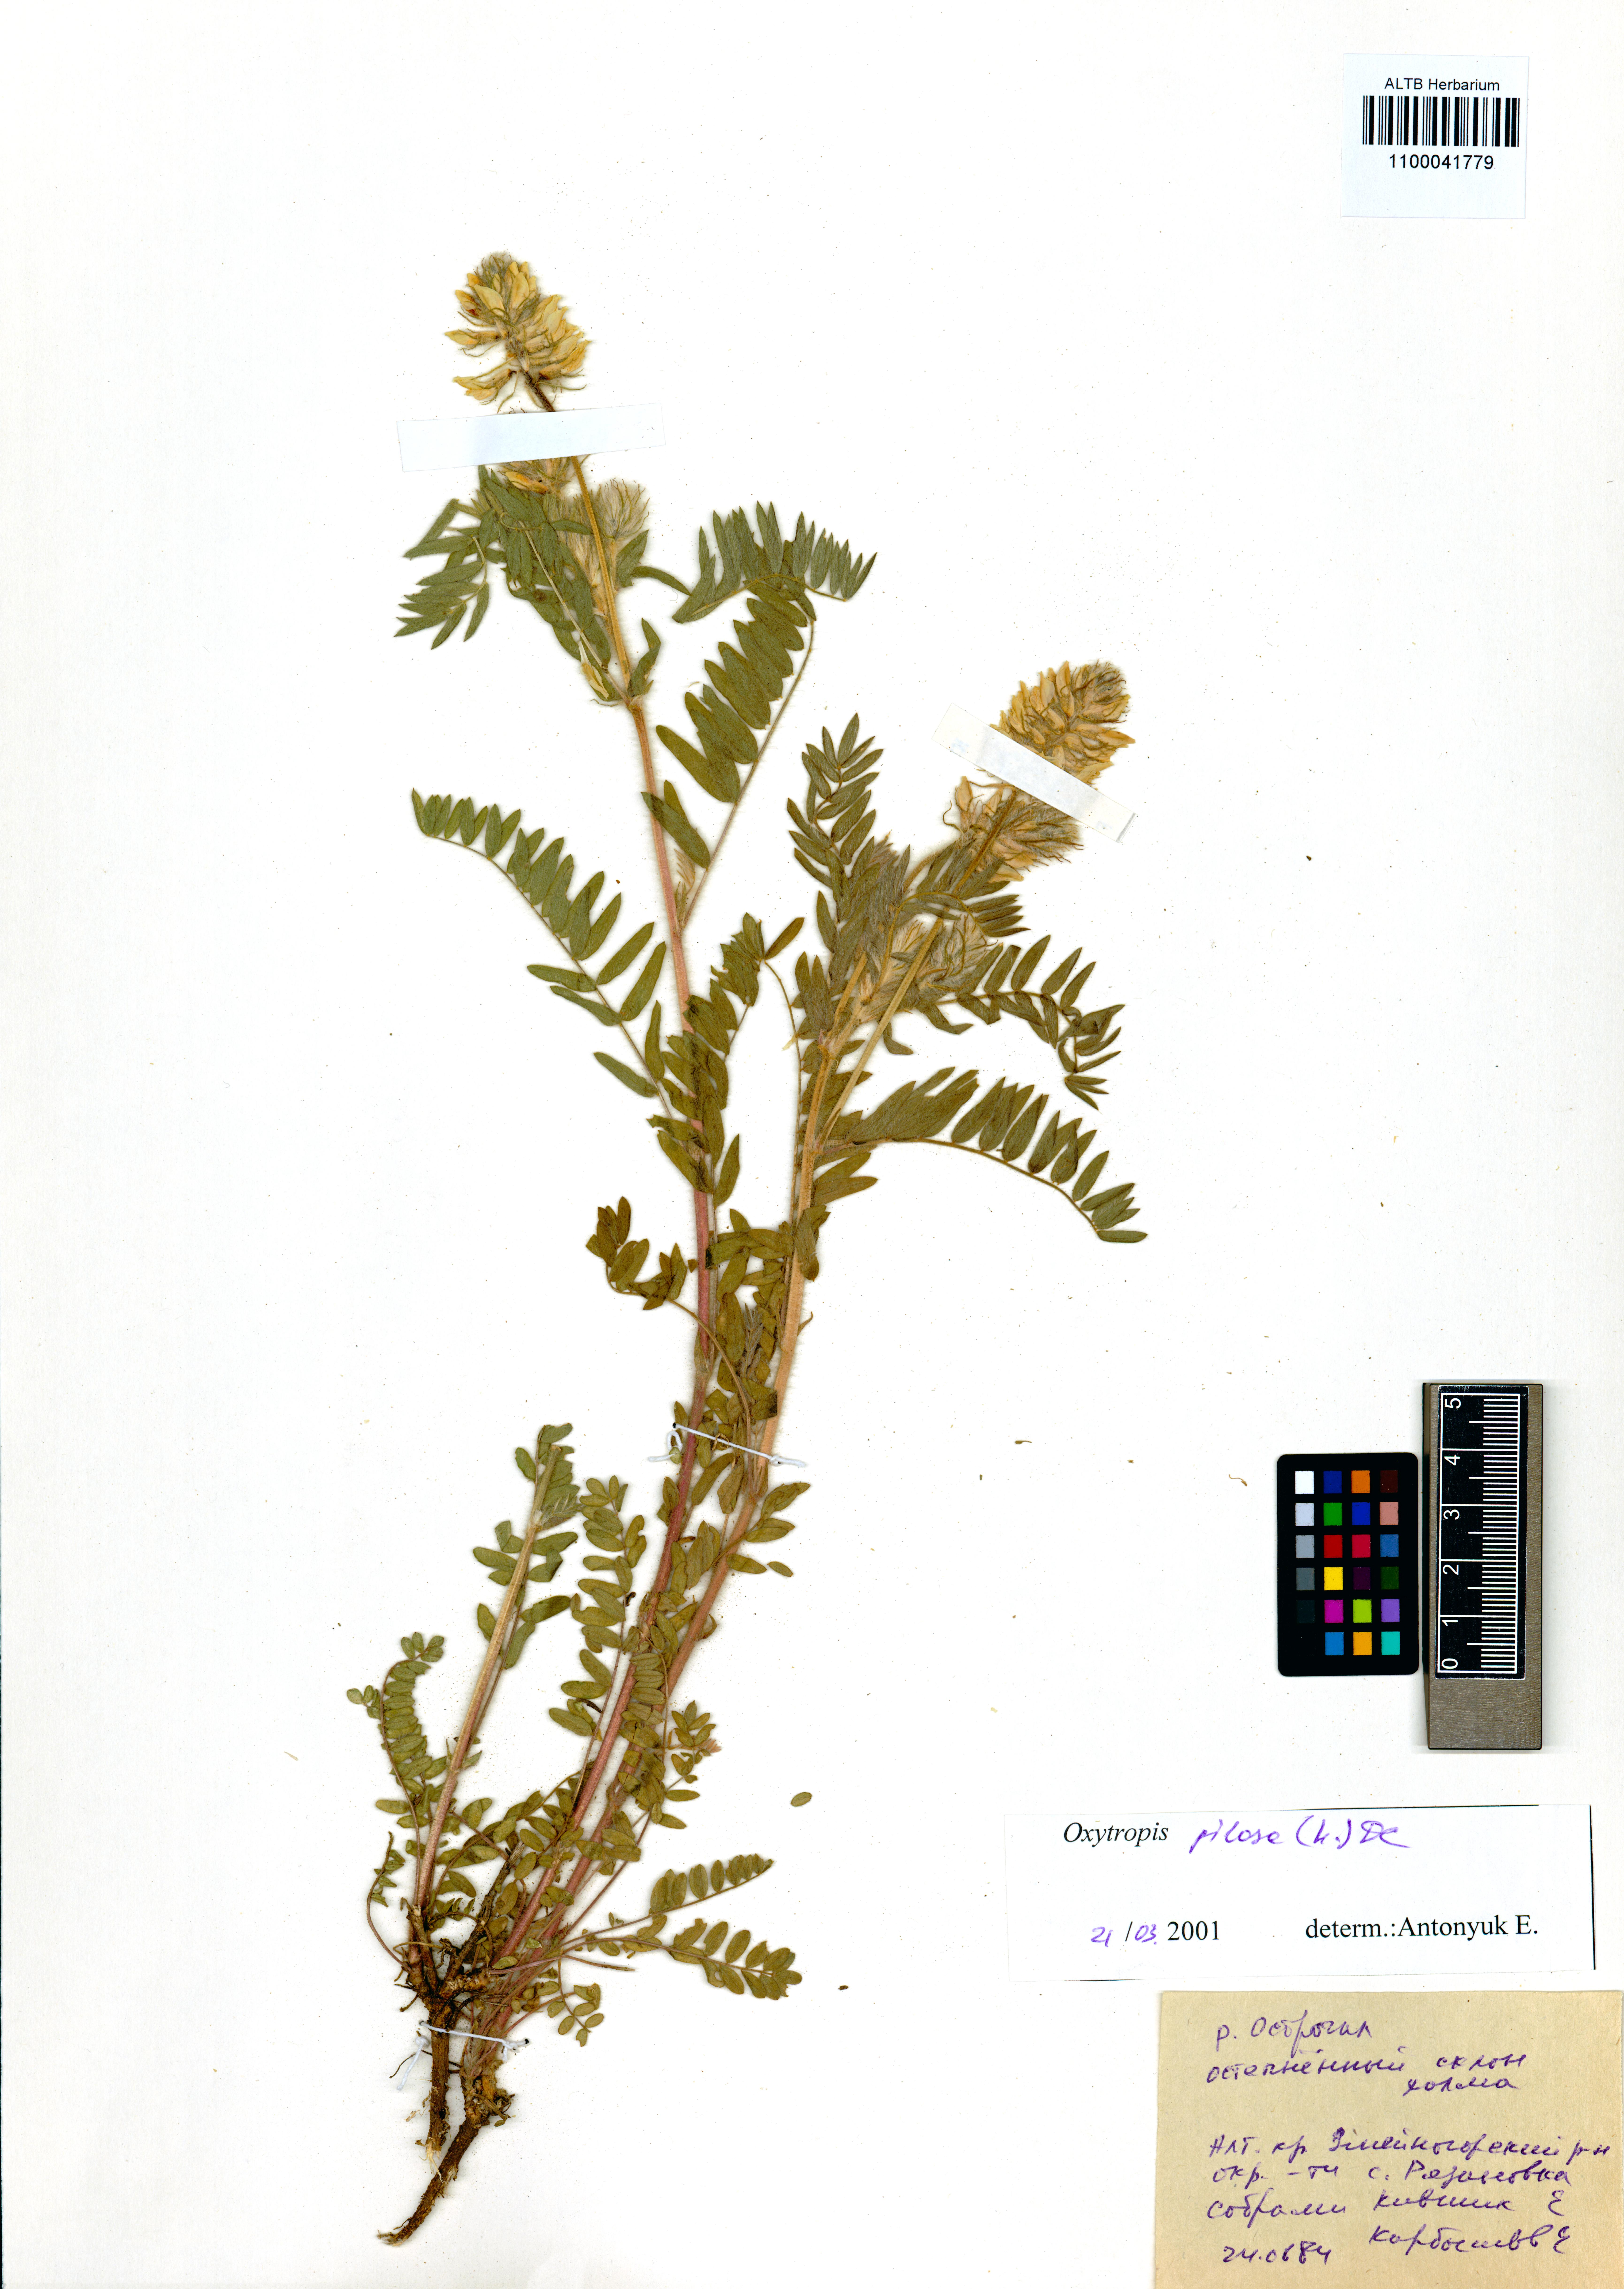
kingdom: Plantae
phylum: Tracheophyta
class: Magnoliopsida
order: Fabales
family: Fabaceae
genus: Oxytropis
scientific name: Oxytropis pilosa
